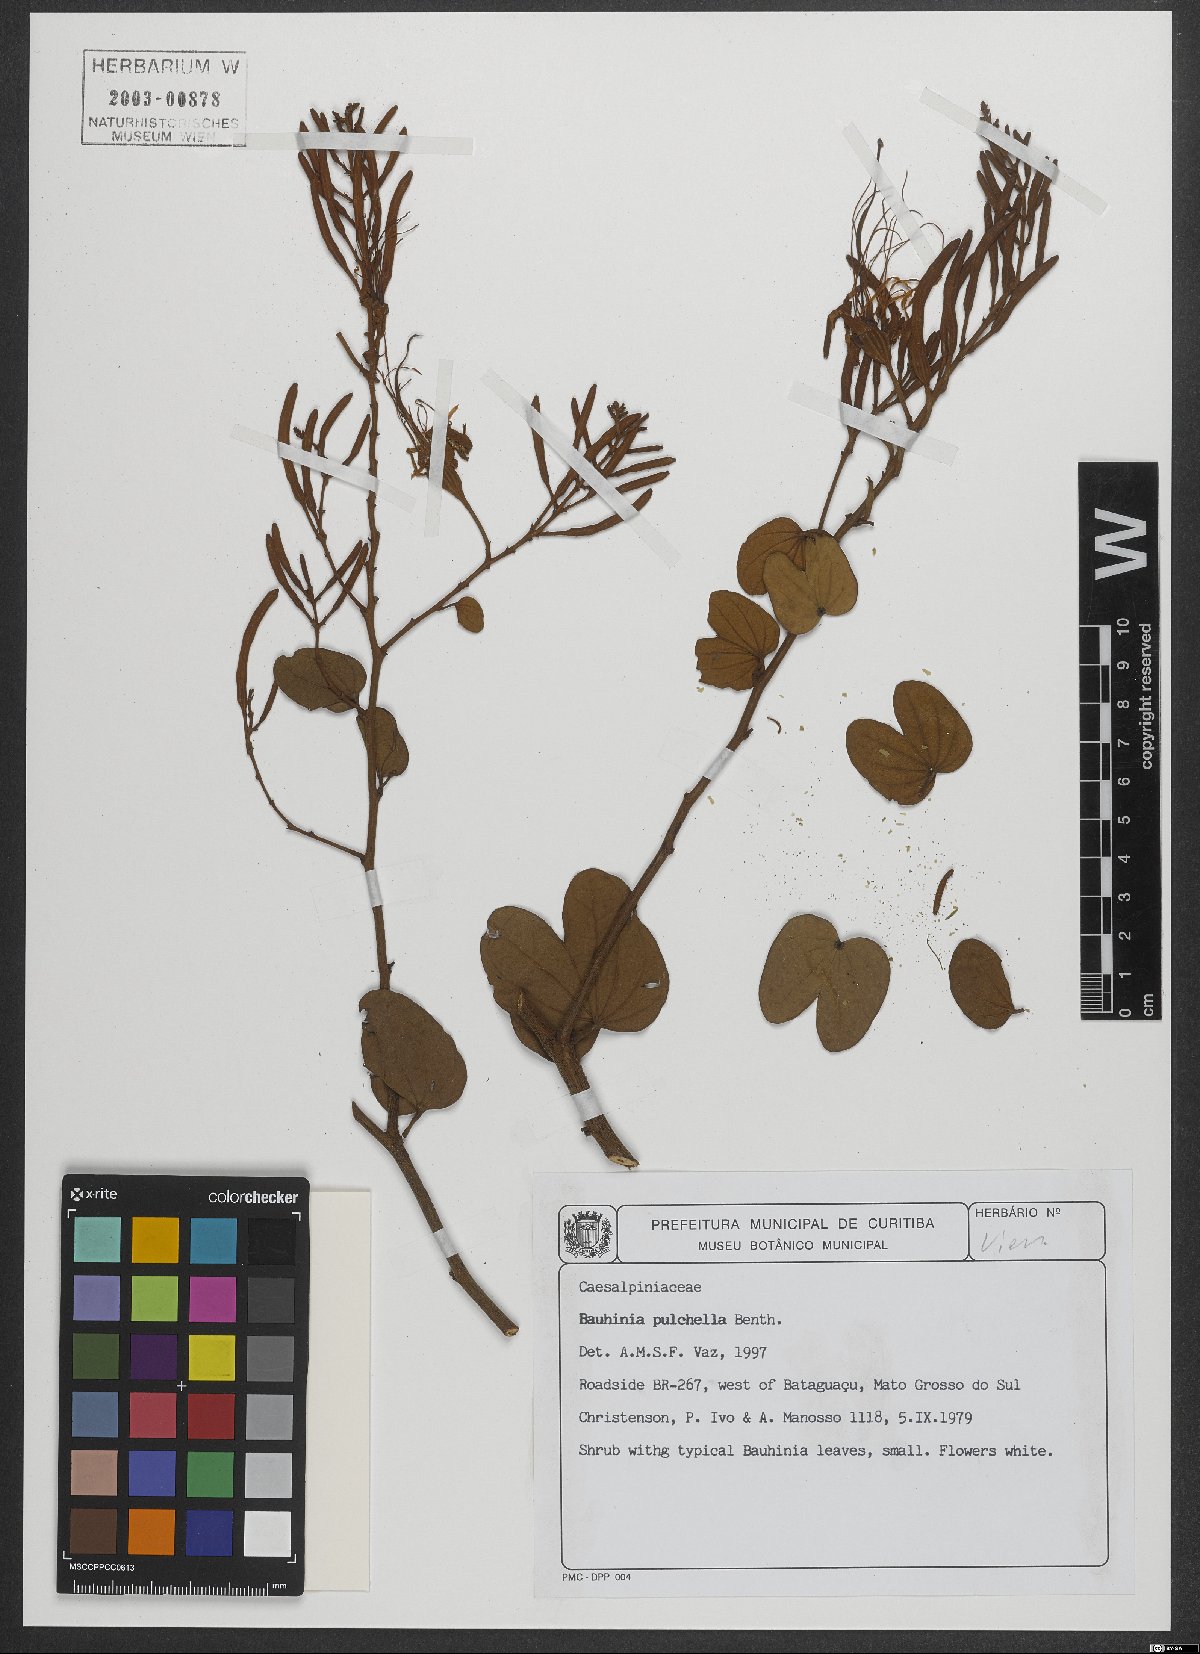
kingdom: Plantae
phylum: Tracheophyta
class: Magnoliopsida
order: Fabales
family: Fabaceae
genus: Bauhinia
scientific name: Bauhinia pulchella
